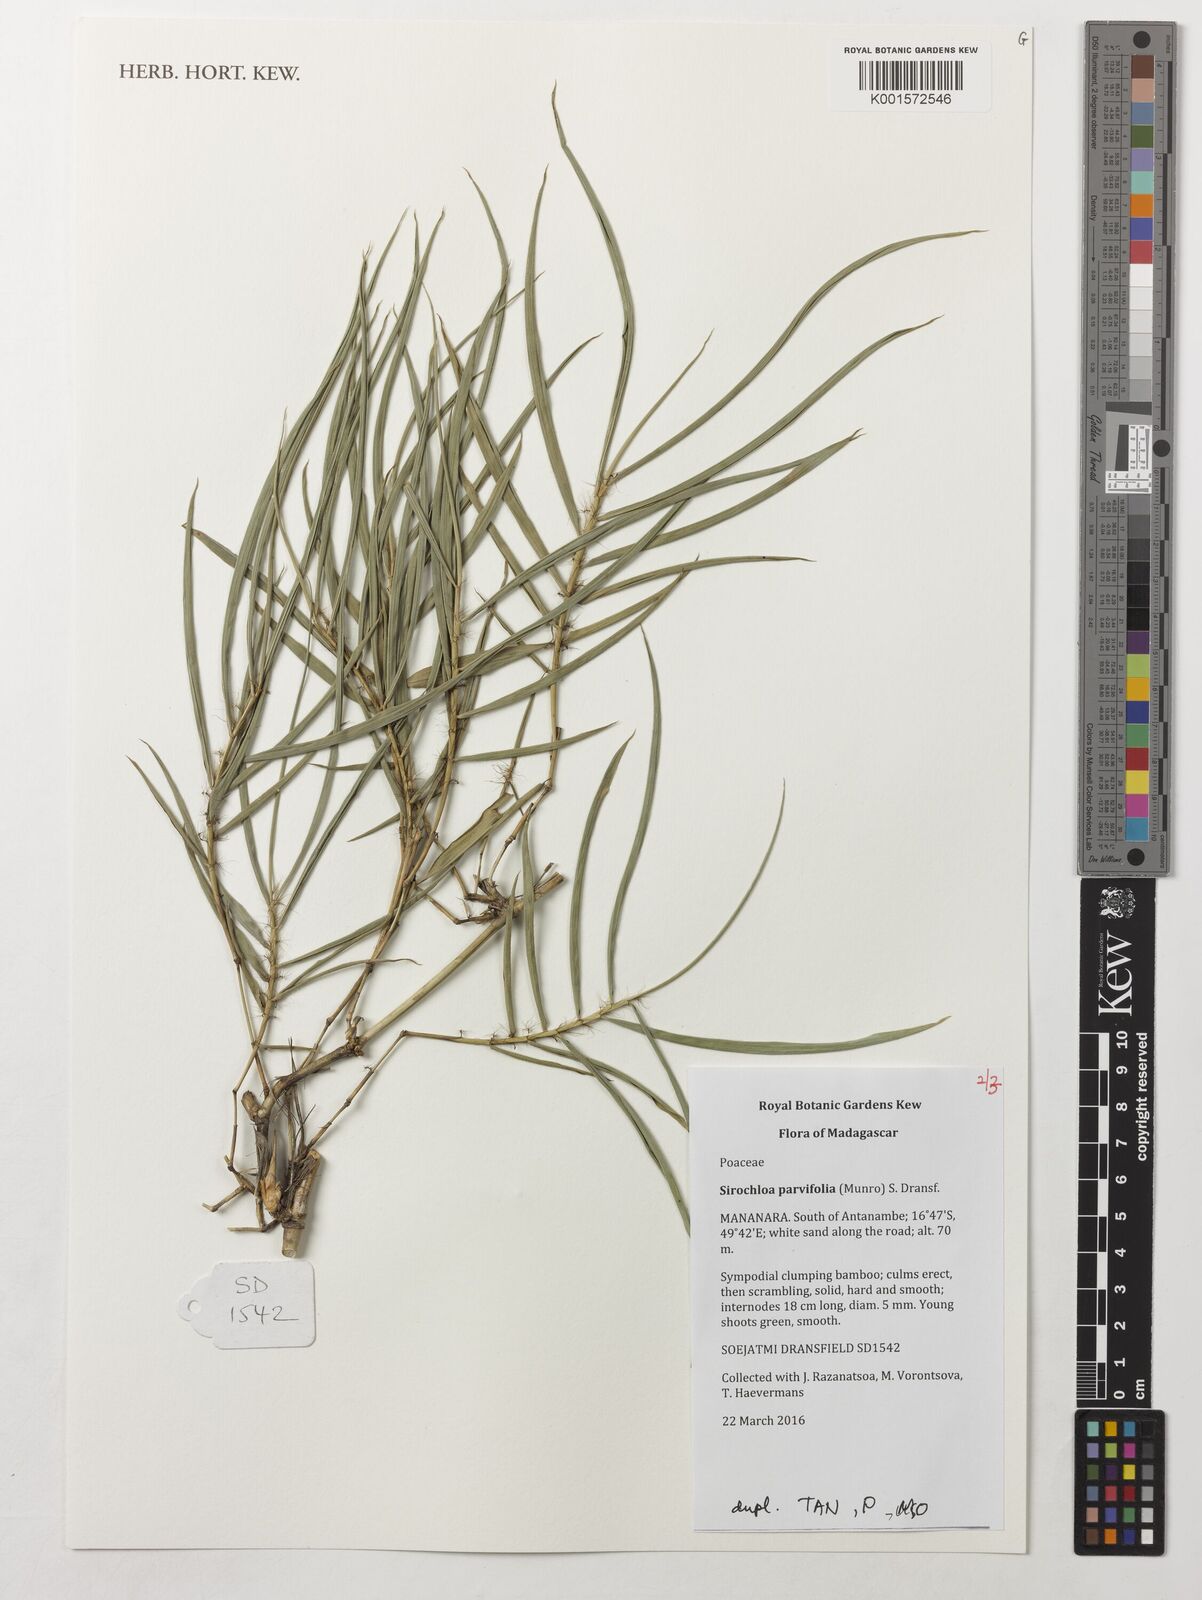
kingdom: Plantae
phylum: Tracheophyta
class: Liliopsida
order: Poales
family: Poaceae
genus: Sirochloa
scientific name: Sirochloa parvifolia
